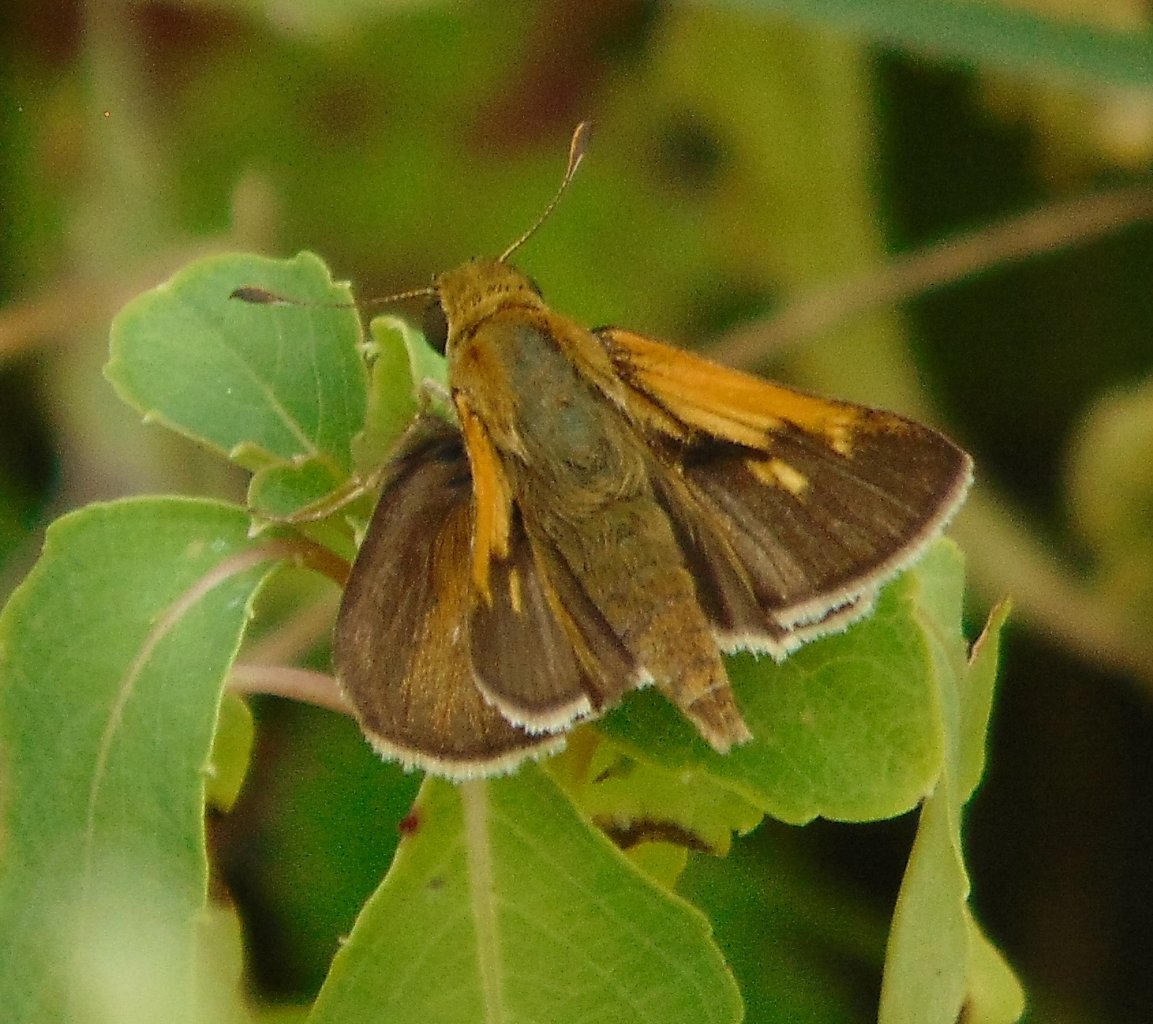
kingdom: Animalia
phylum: Arthropoda
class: Insecta
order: Lepidoptera
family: Hesperiidae
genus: Polites
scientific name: Polites themistocles
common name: Tawny-edged Skipper
